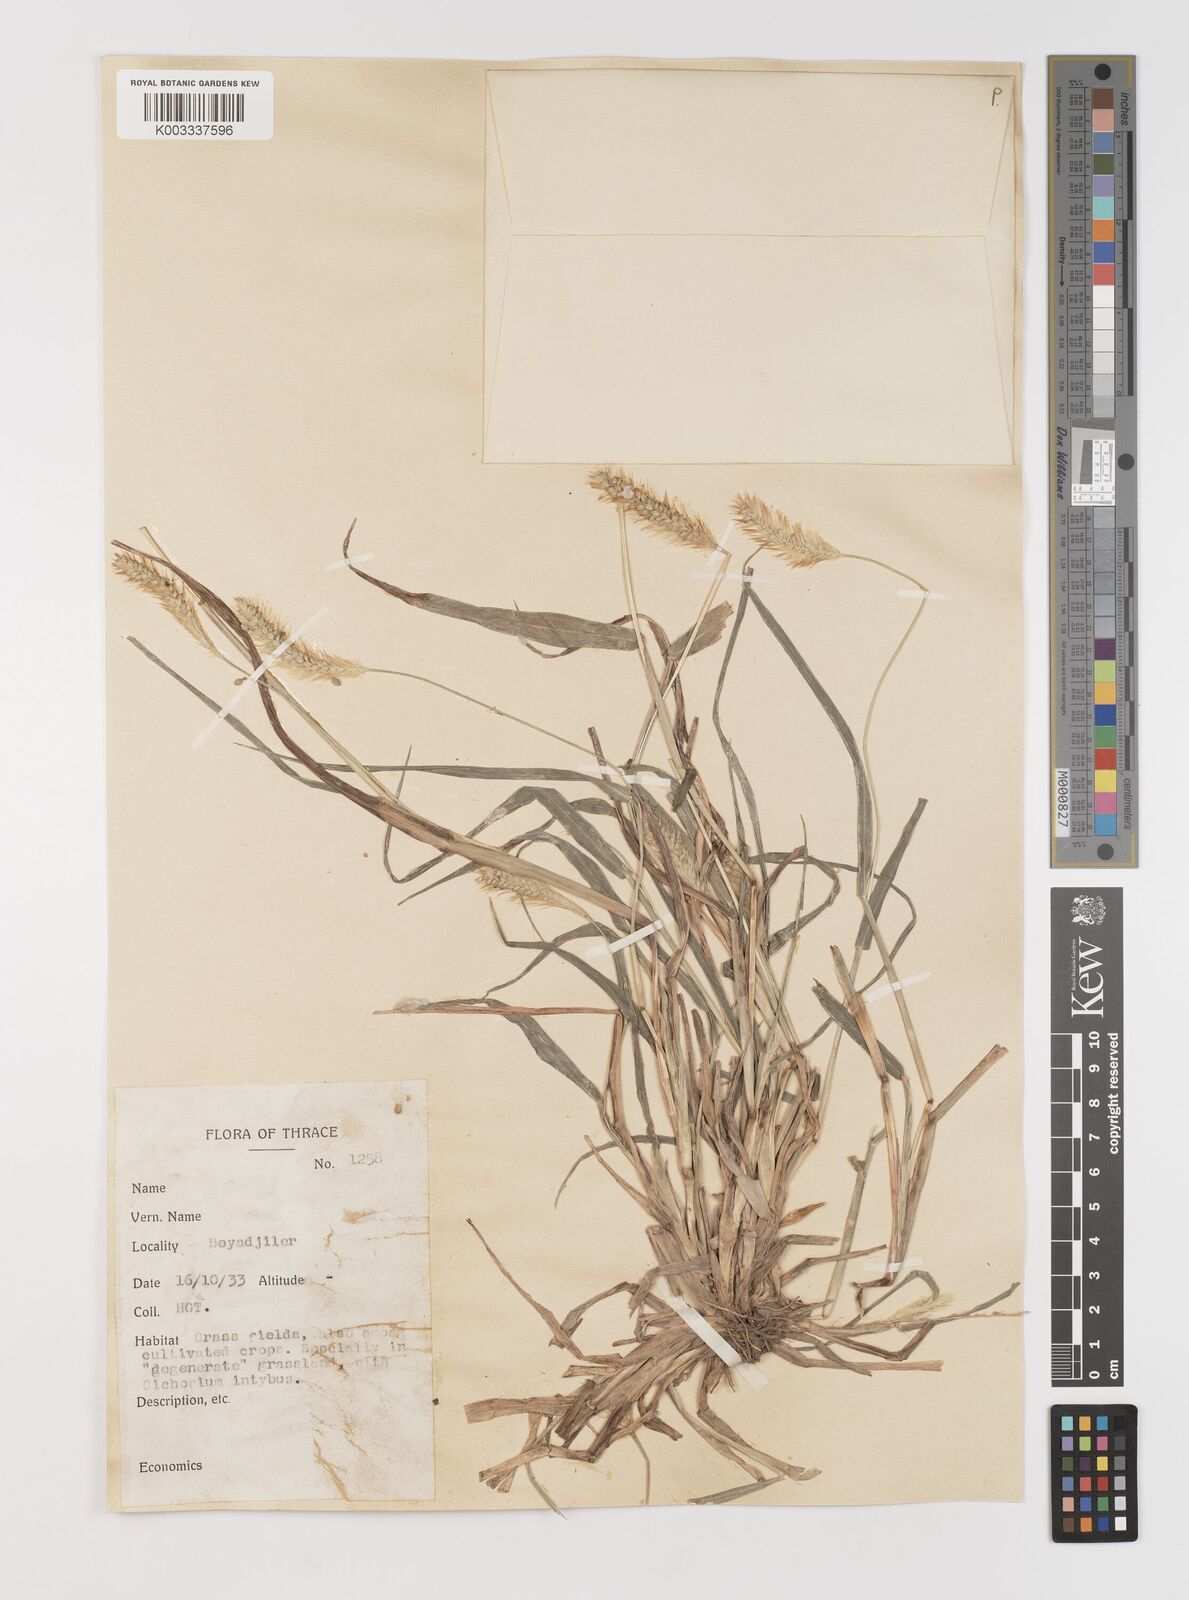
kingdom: Plantae
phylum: Tracheophyta
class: Liliopsida
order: Poales
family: Poaceae
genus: Setaria
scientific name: Setaria pumila
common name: Yellow bristle-grass
